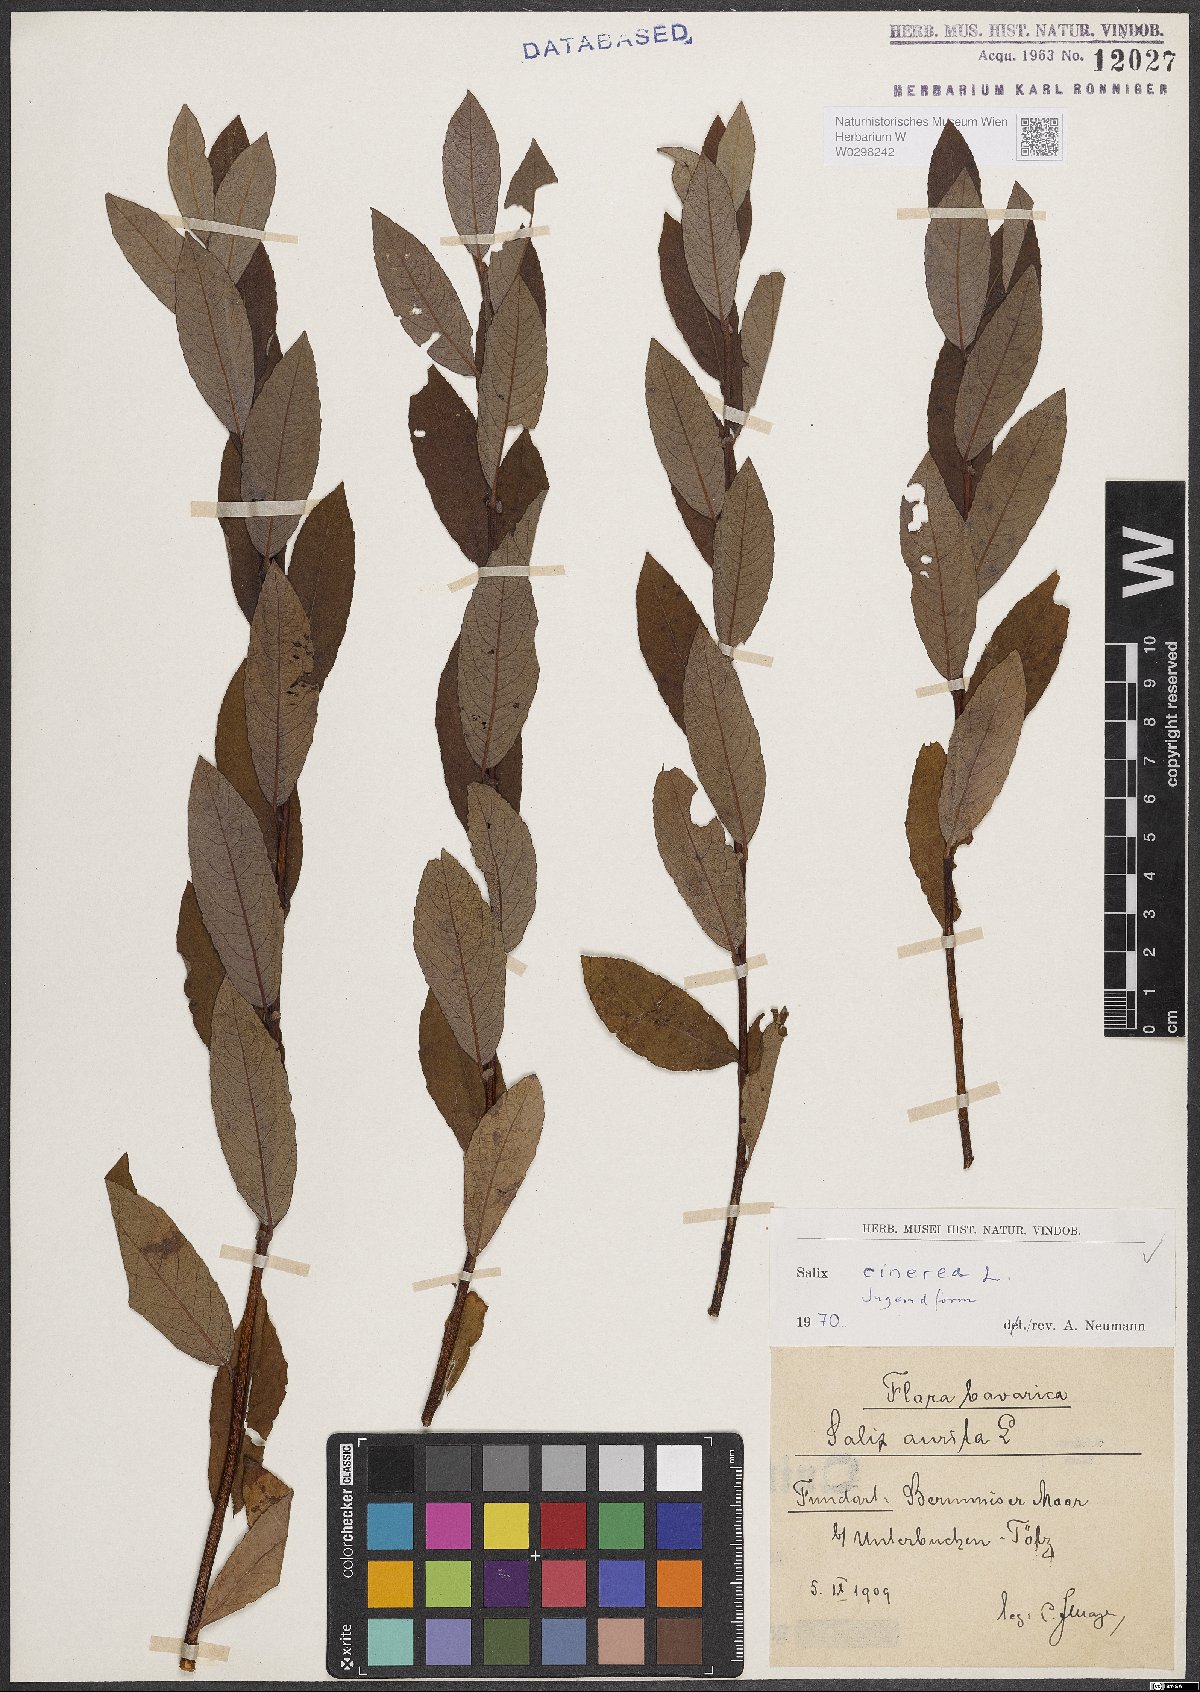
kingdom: Plantae
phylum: Tracheophyta
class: Magnoliopsida
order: Malpighiales
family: Salicaceae
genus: Salix
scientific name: Salix cinerea
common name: Common sallow
